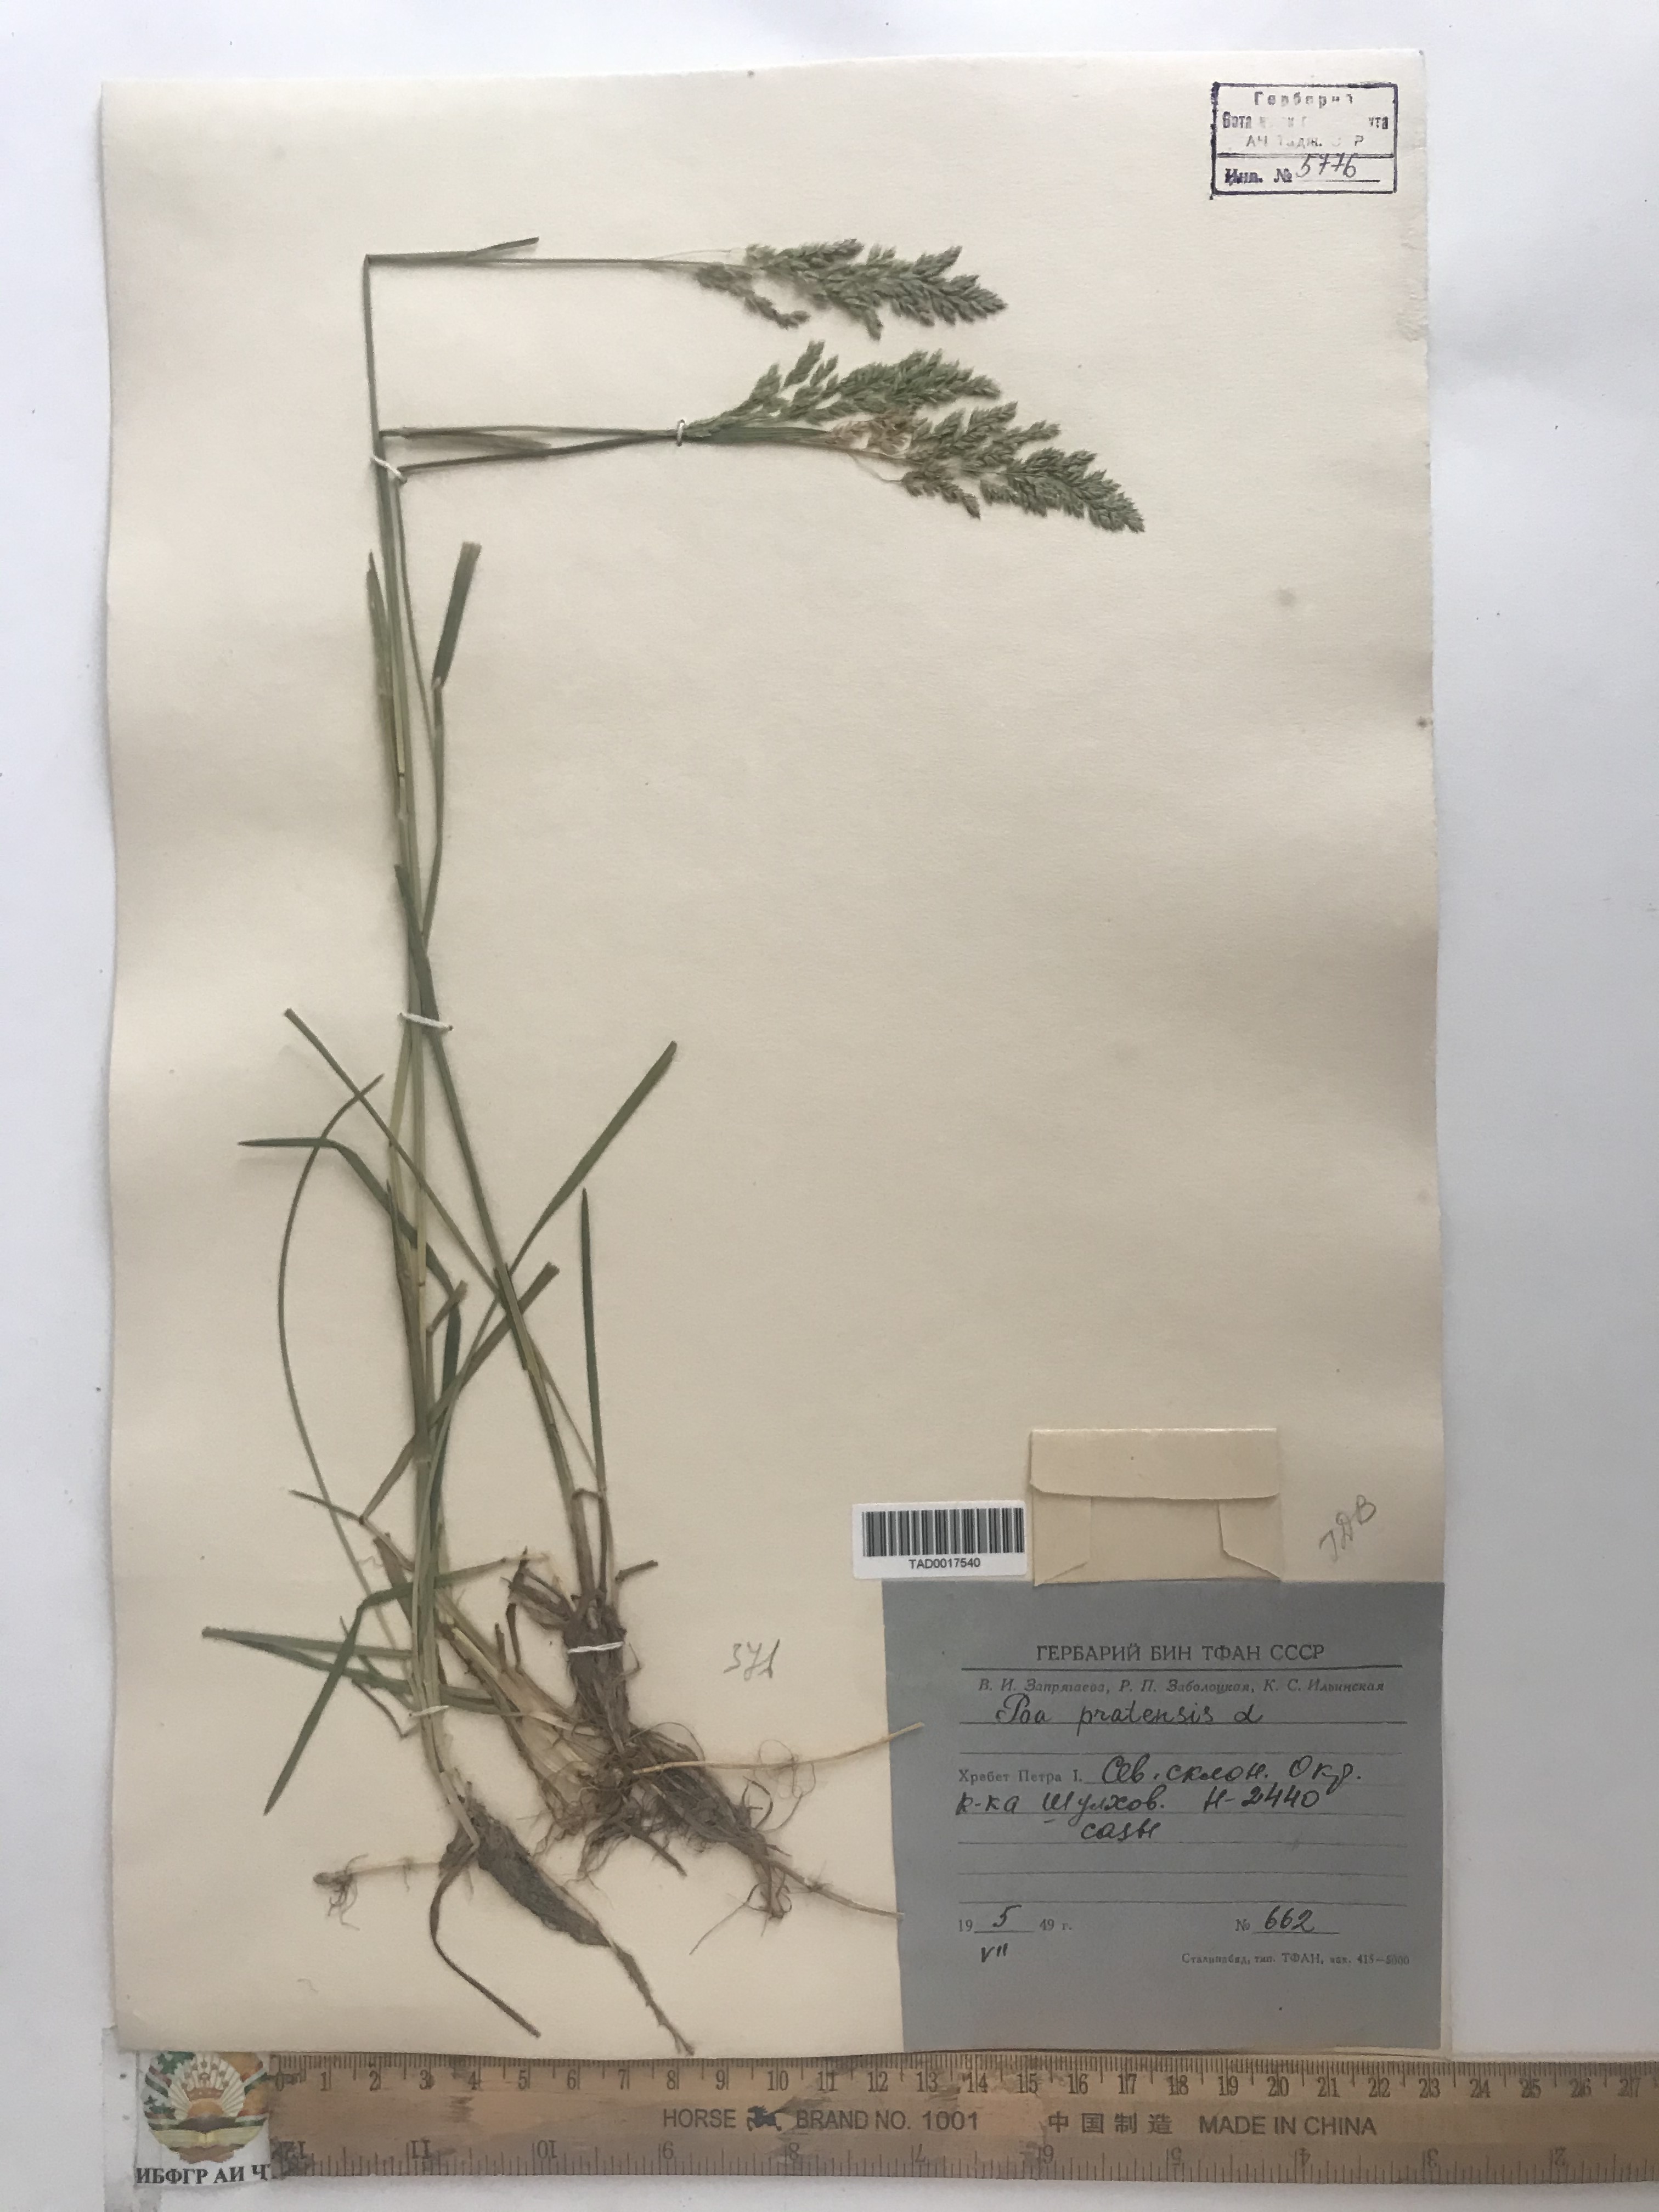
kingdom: Plantae
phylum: Tracheophyta
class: Liliopsida
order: Poales
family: Poaceae
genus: Poa
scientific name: Poa pratensis
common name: Kentucky bluegrass
